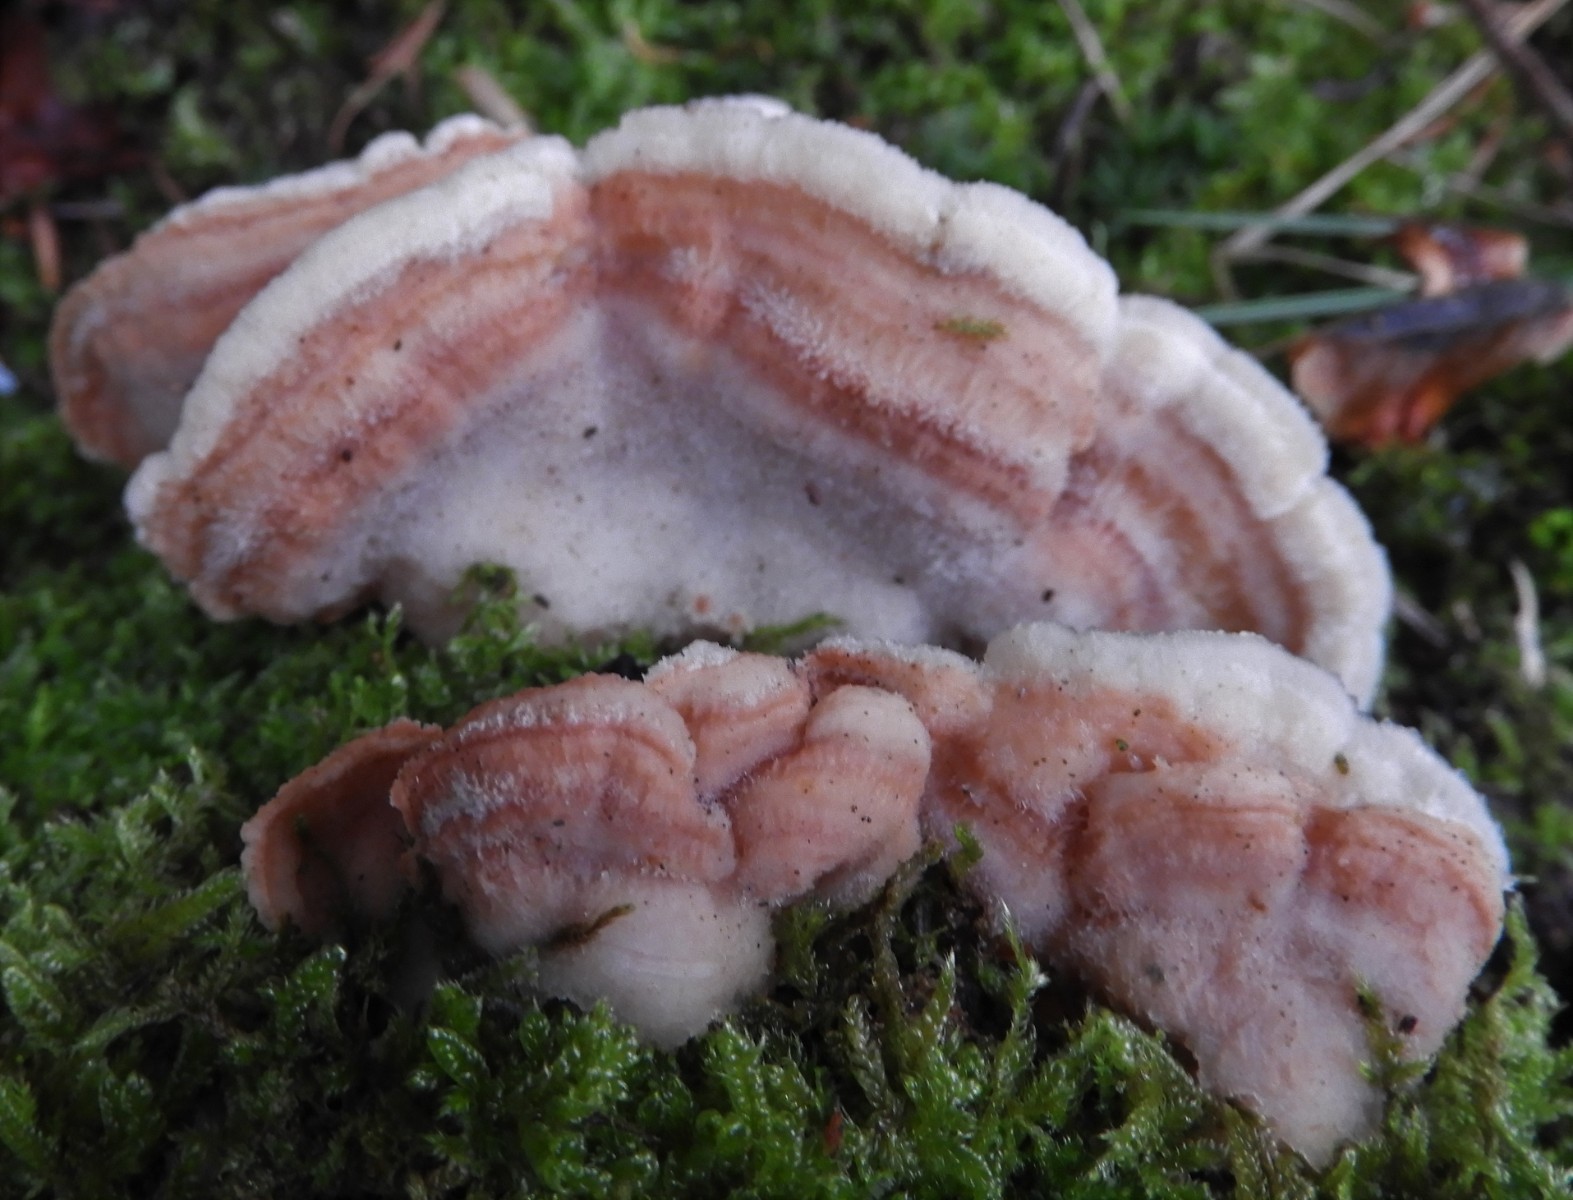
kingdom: Fungi
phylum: Basidiomycota
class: Agaricomycetes
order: Polyporales
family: Meruliaceae
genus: Phlebia
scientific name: Phlebia tremellosa
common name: bævrende åresvamp
